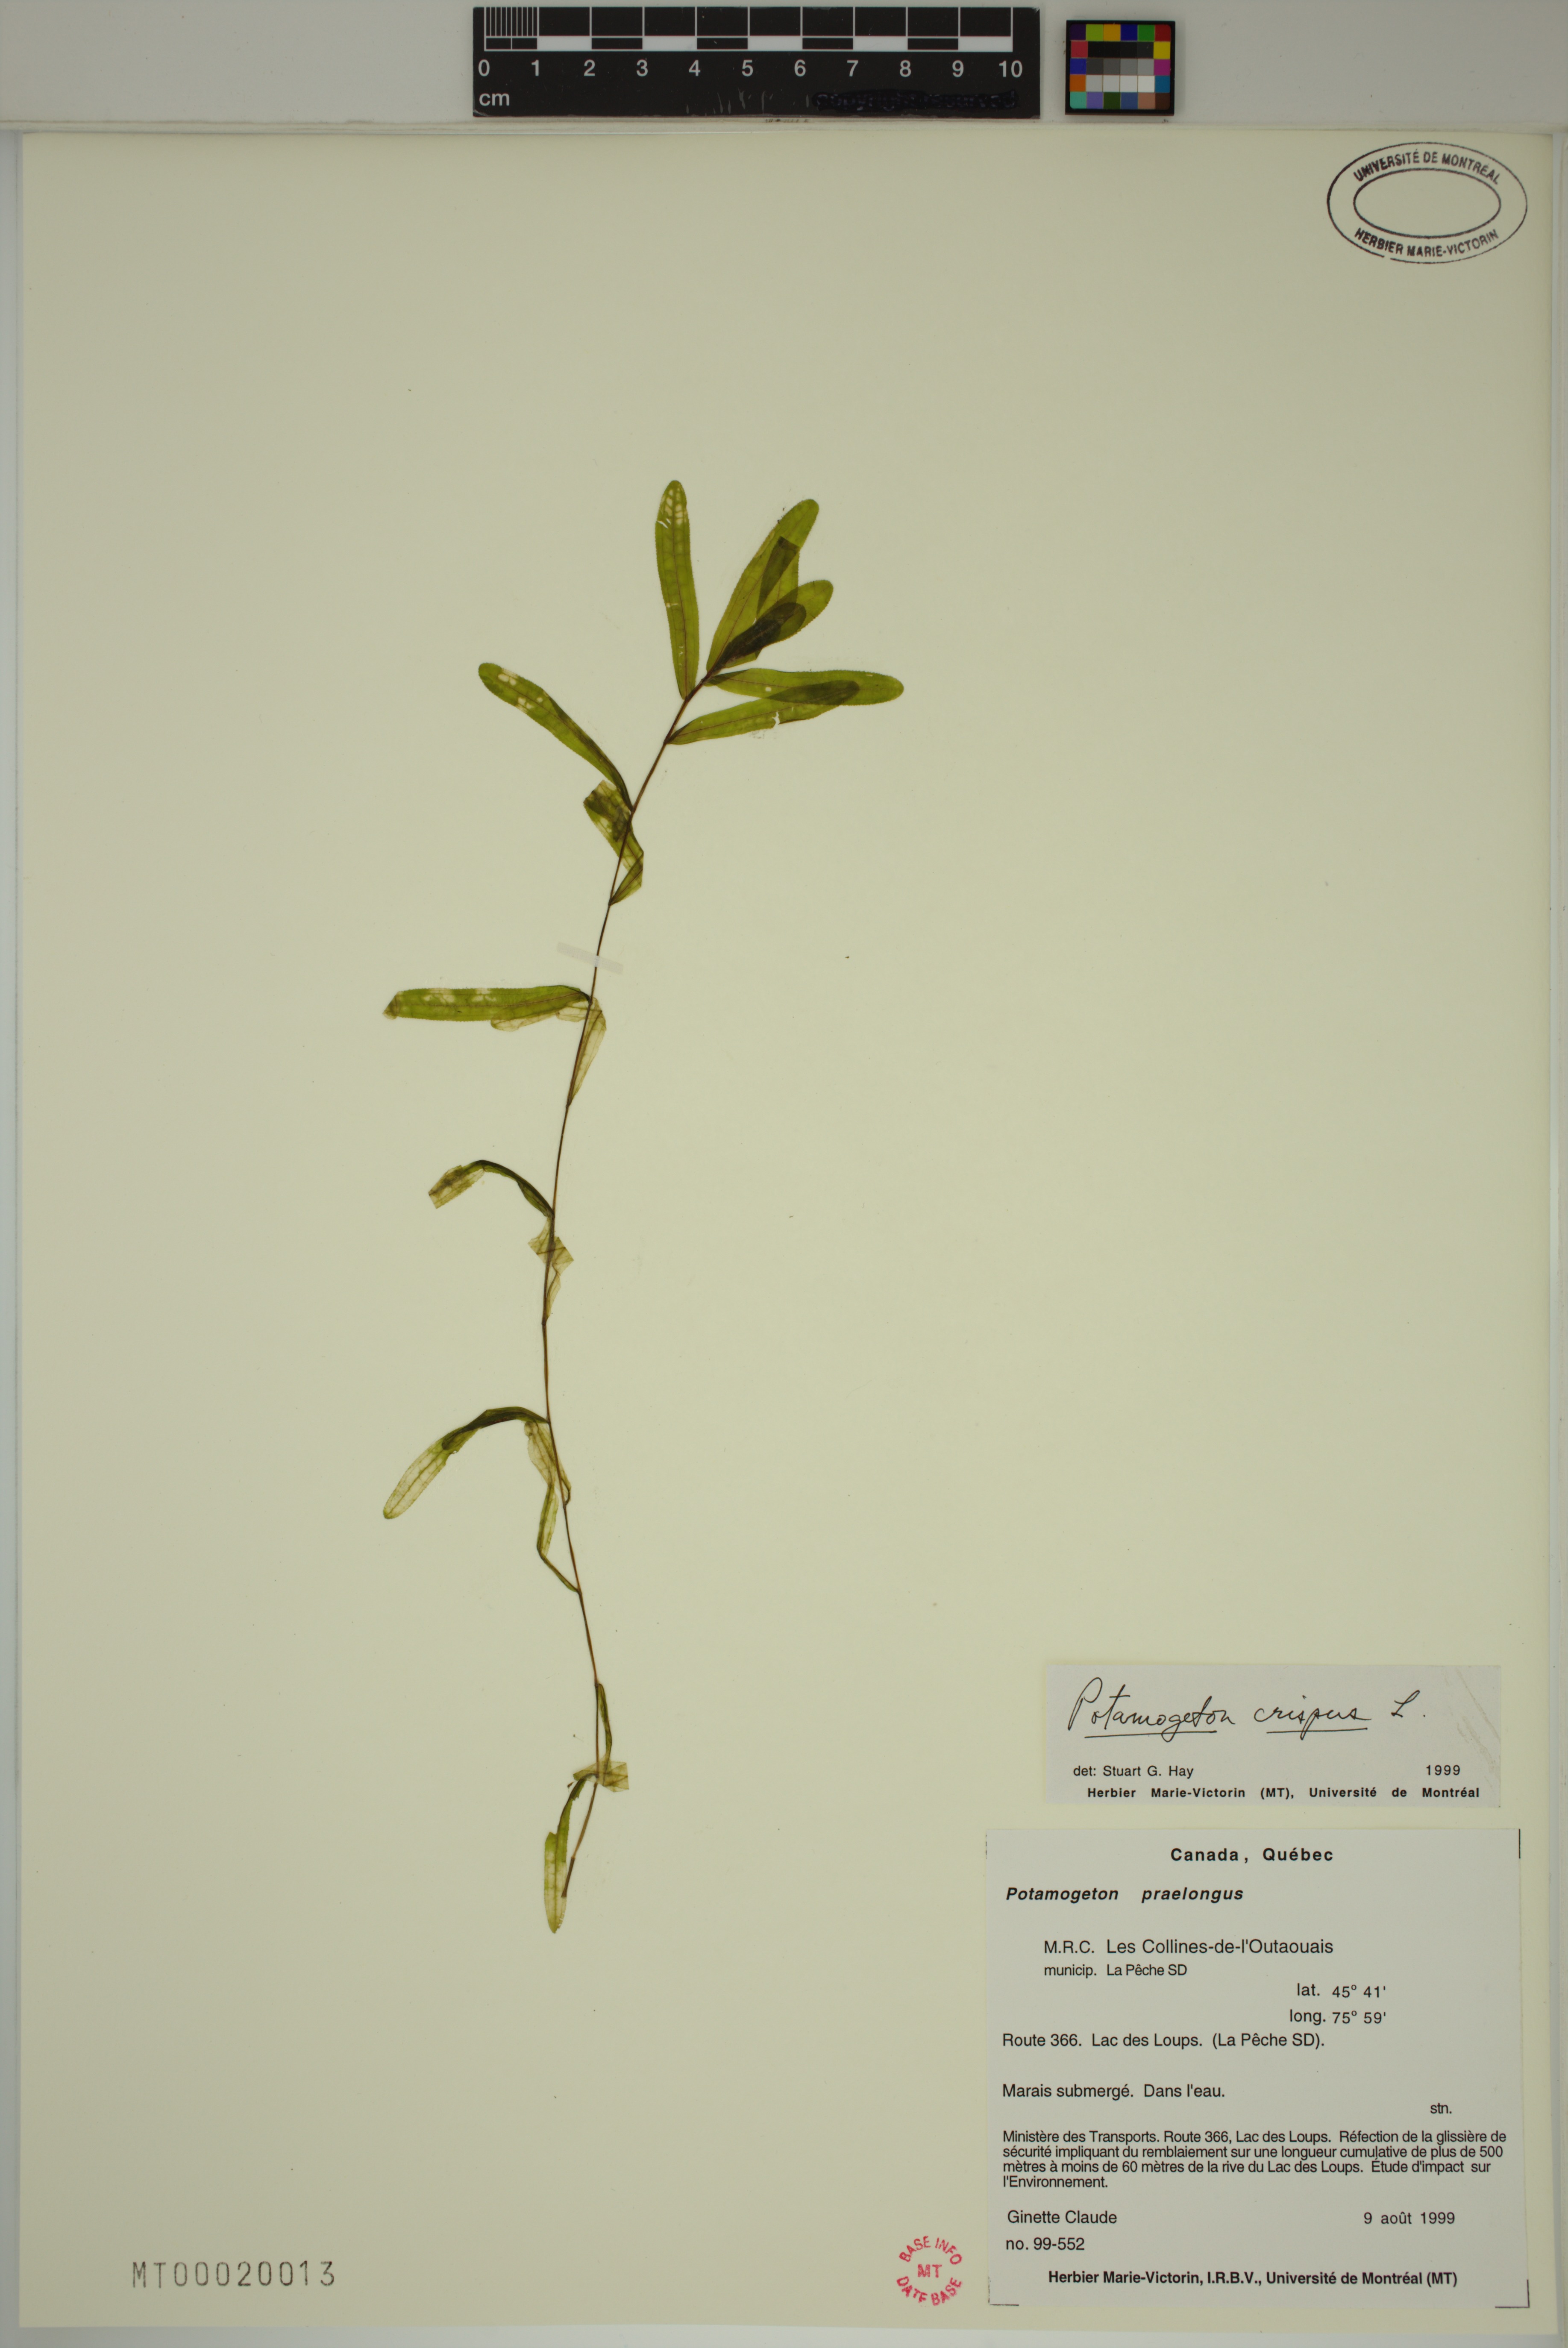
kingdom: Plantae
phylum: Tracheophyta
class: Liliopsida
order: Alismatales
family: Potamogetonaceae
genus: Potamogeton
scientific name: Potamogeton crispus
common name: Curled pondweed
